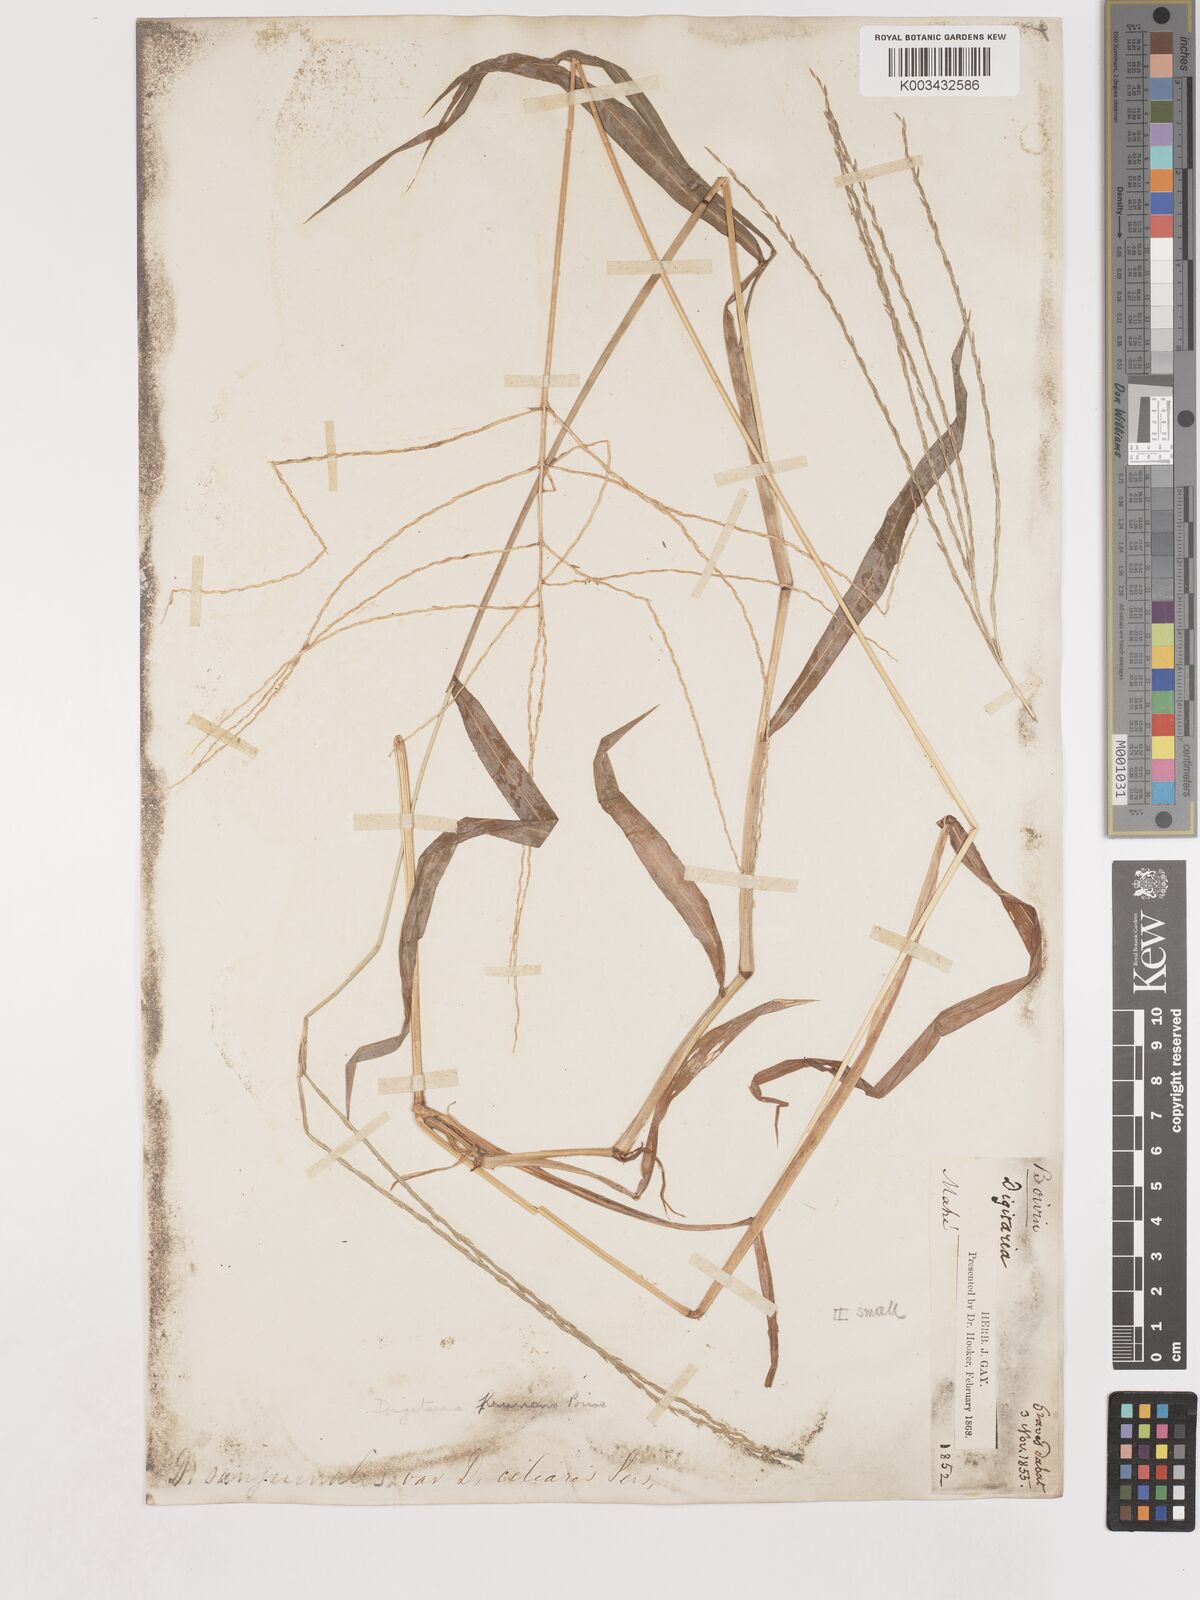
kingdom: Plantae
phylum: Tracheophyta
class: Liliopsida
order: Poales
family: Poaceae
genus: Digitaria
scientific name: Digitaria setigera
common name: East indian crabgrass
